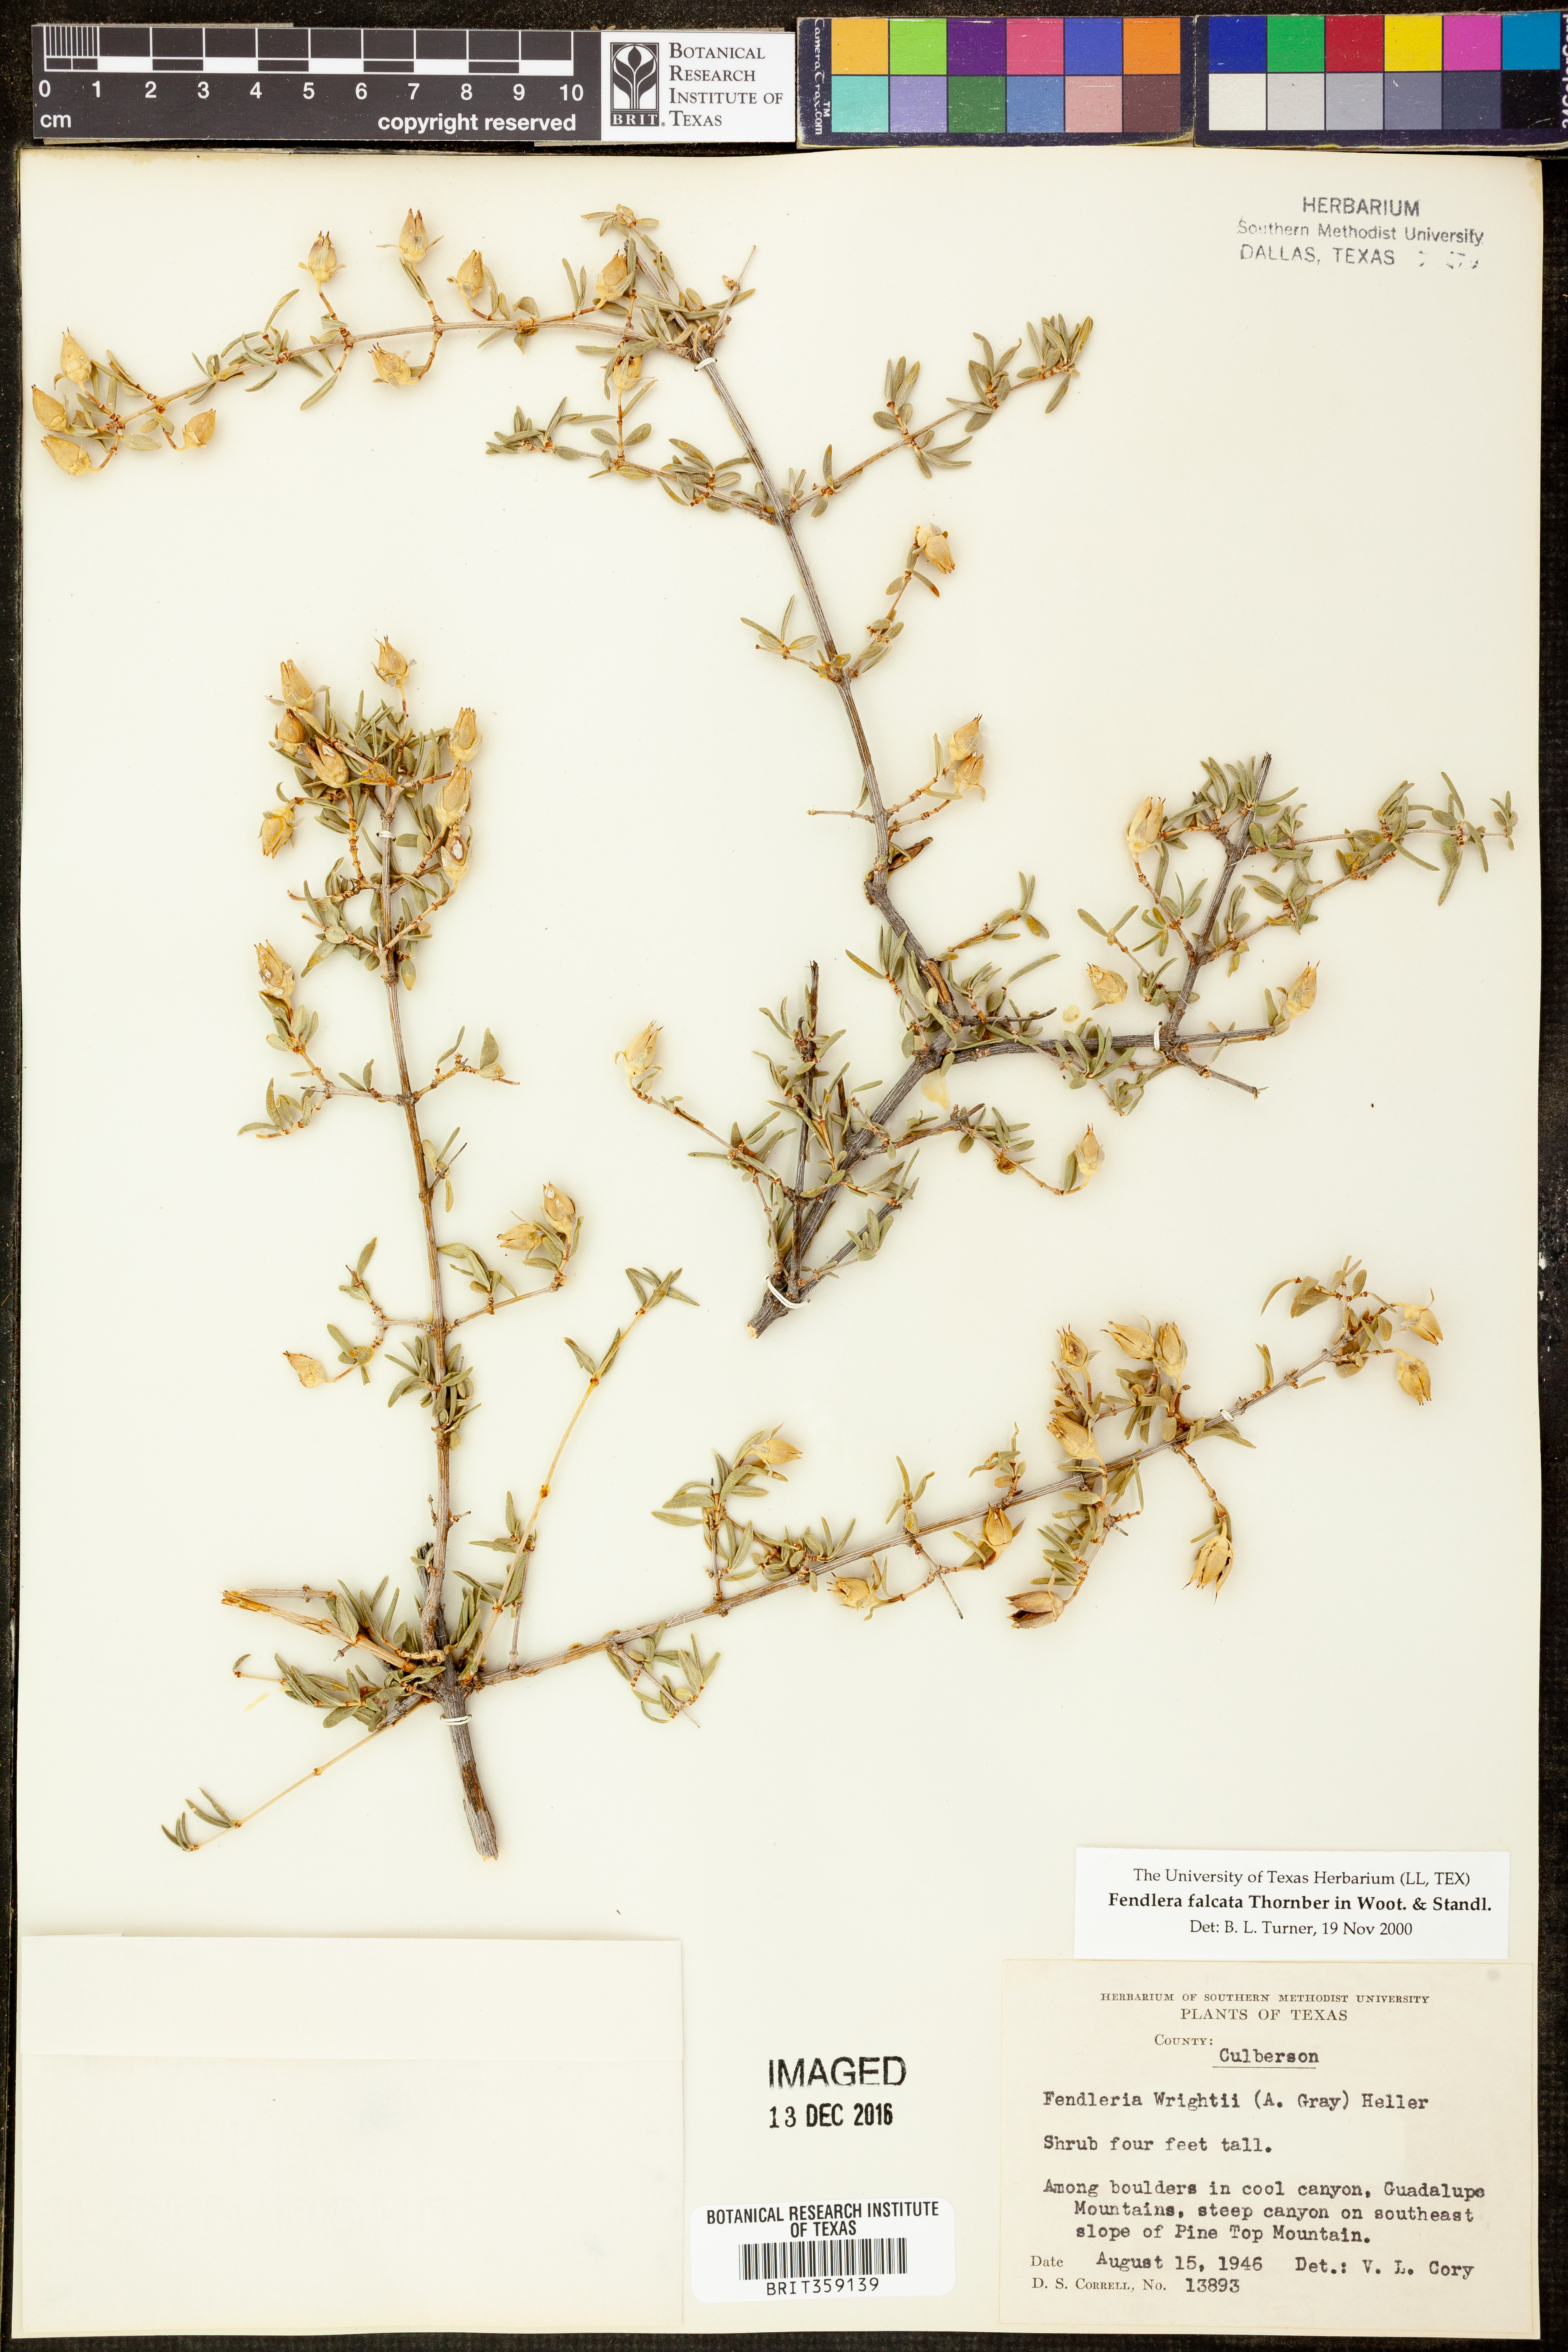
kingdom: Plantae
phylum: Tracheophyta
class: Magnoliopsida
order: Cornales
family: Hydrangeaceae
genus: Fendlera
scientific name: Fendlera rupicola
